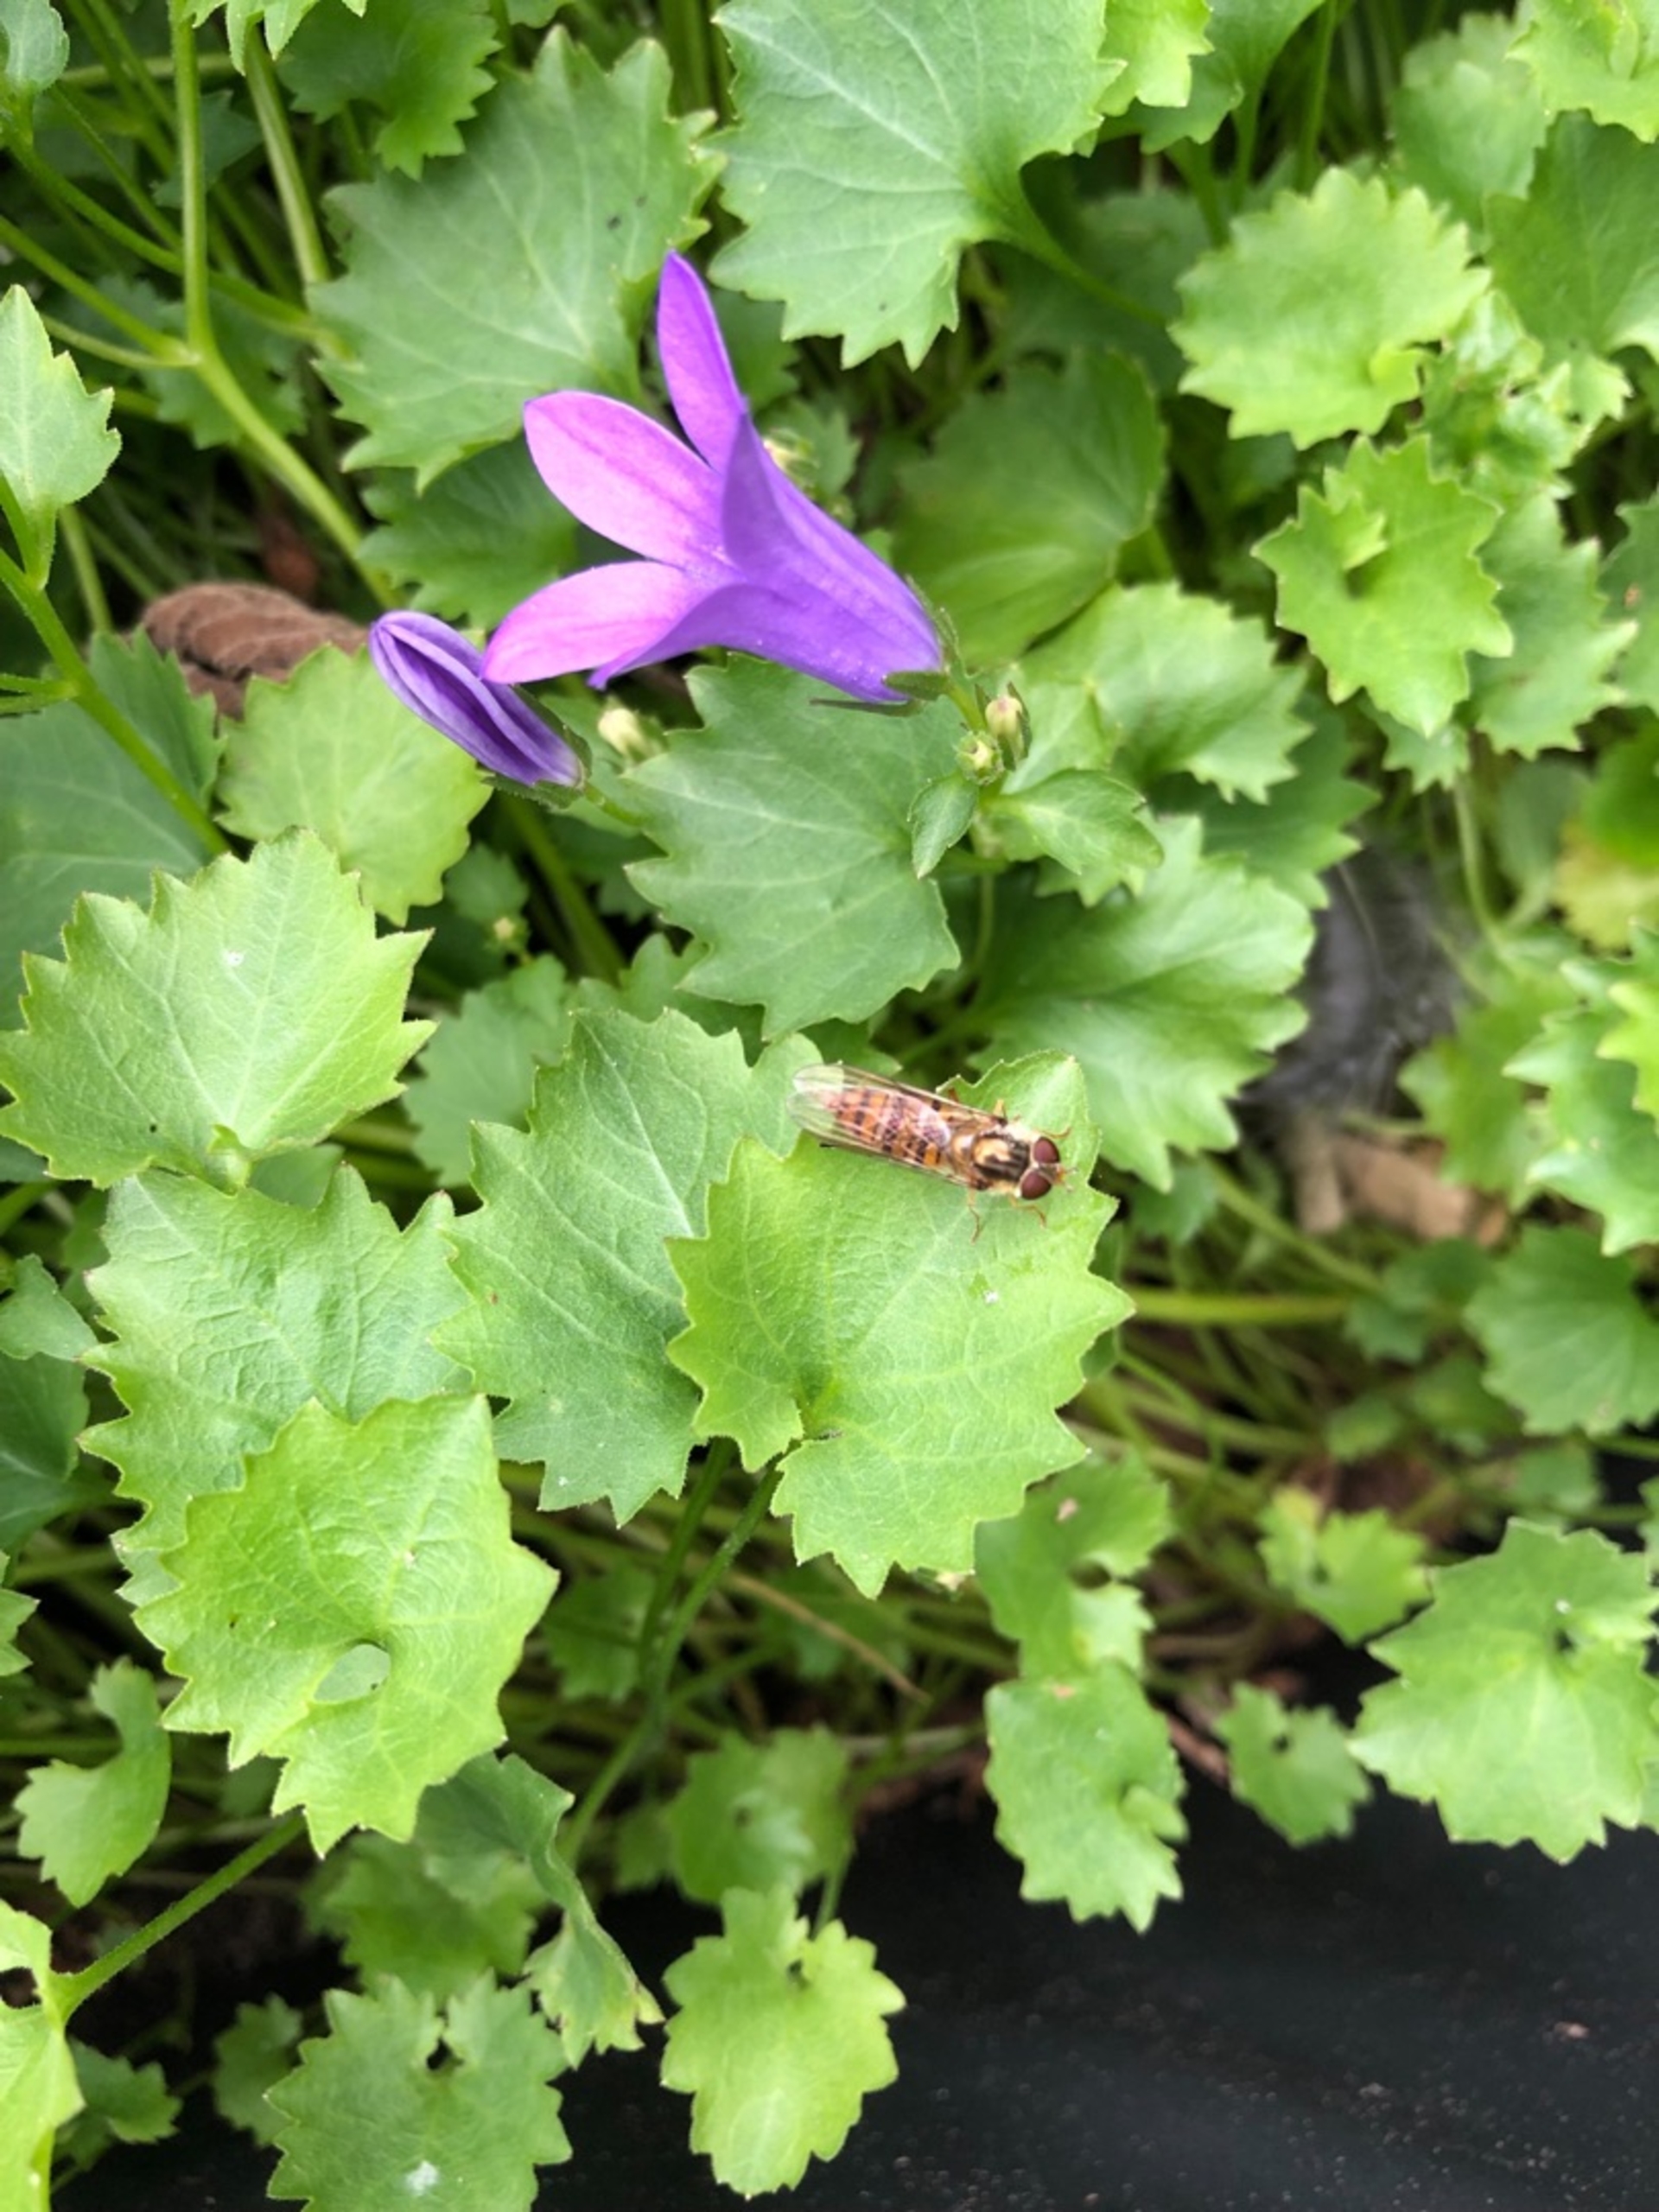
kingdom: Animalia
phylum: Arthropoda
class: Insecta
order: Diptera
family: Syrphidae
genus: Episyrphus
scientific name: Episyrphus balteatus
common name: Dobbeltbåndet svirreflue
